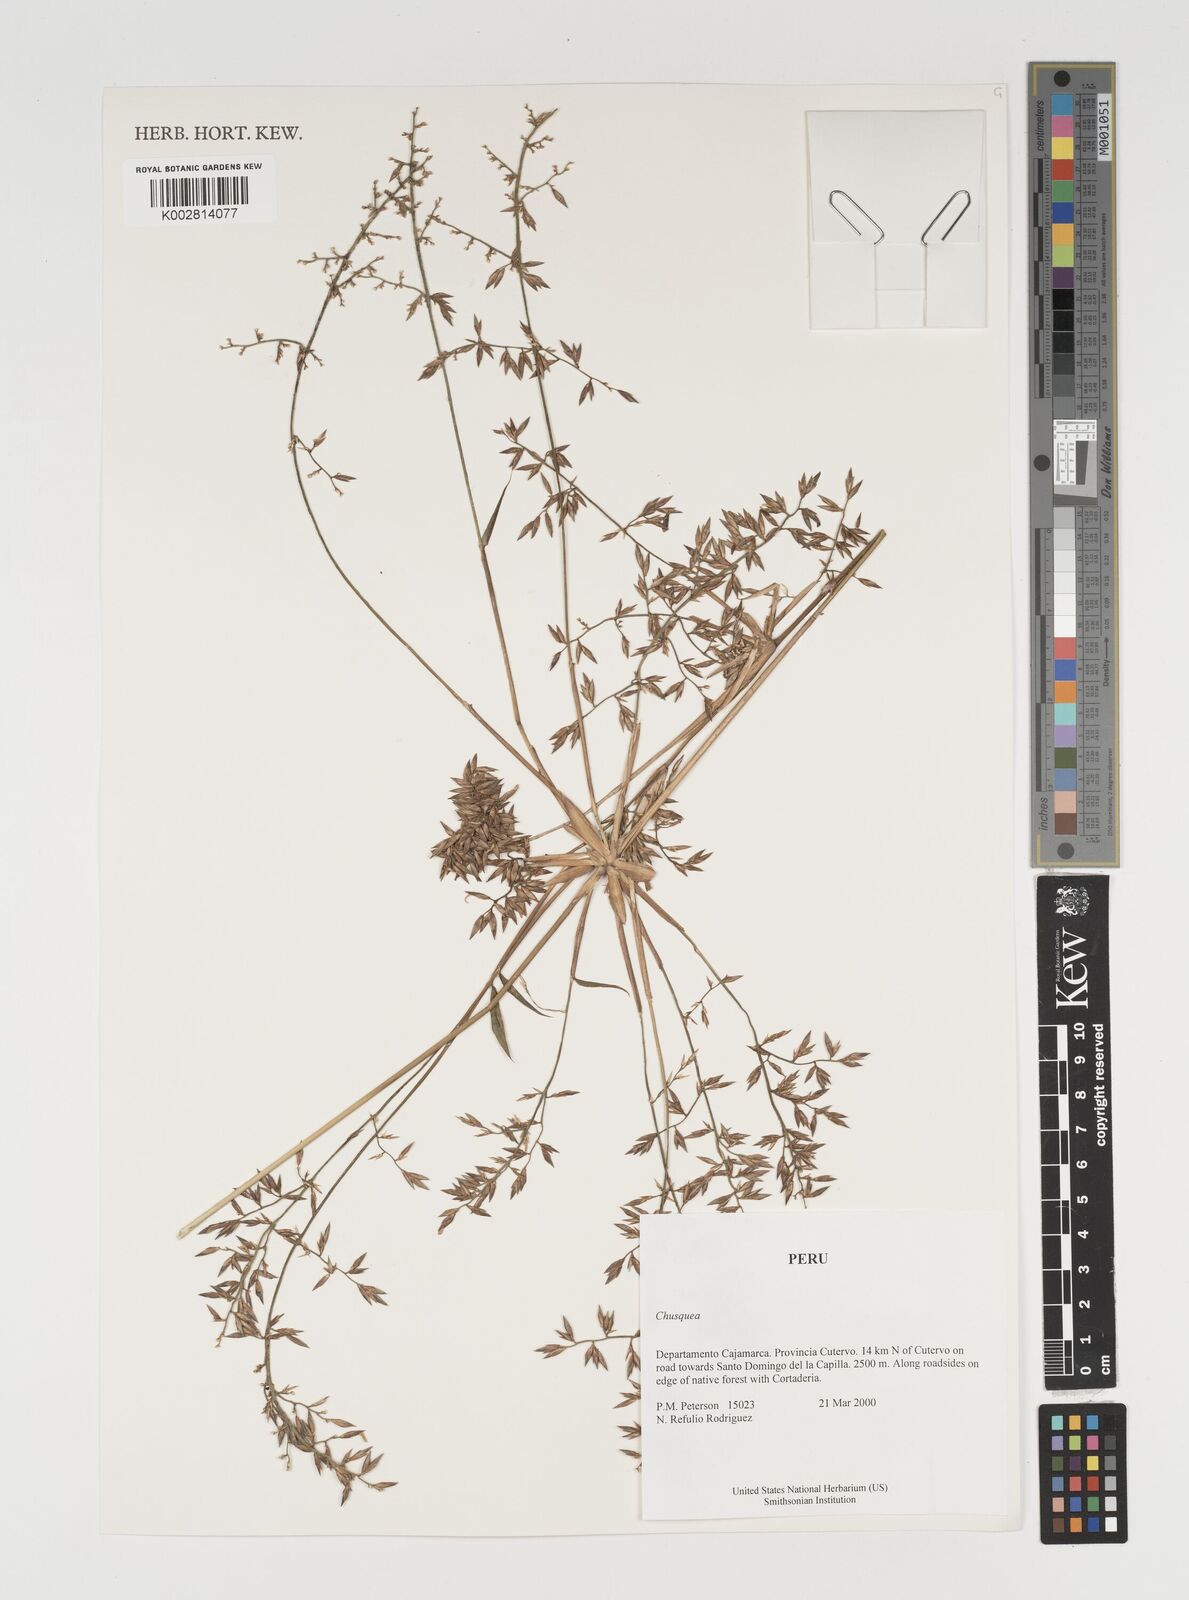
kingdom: Plantae
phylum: Tracheophyta
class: Liliopsida
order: Poales
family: Poaceae
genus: Chusquea
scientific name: Chusquea
